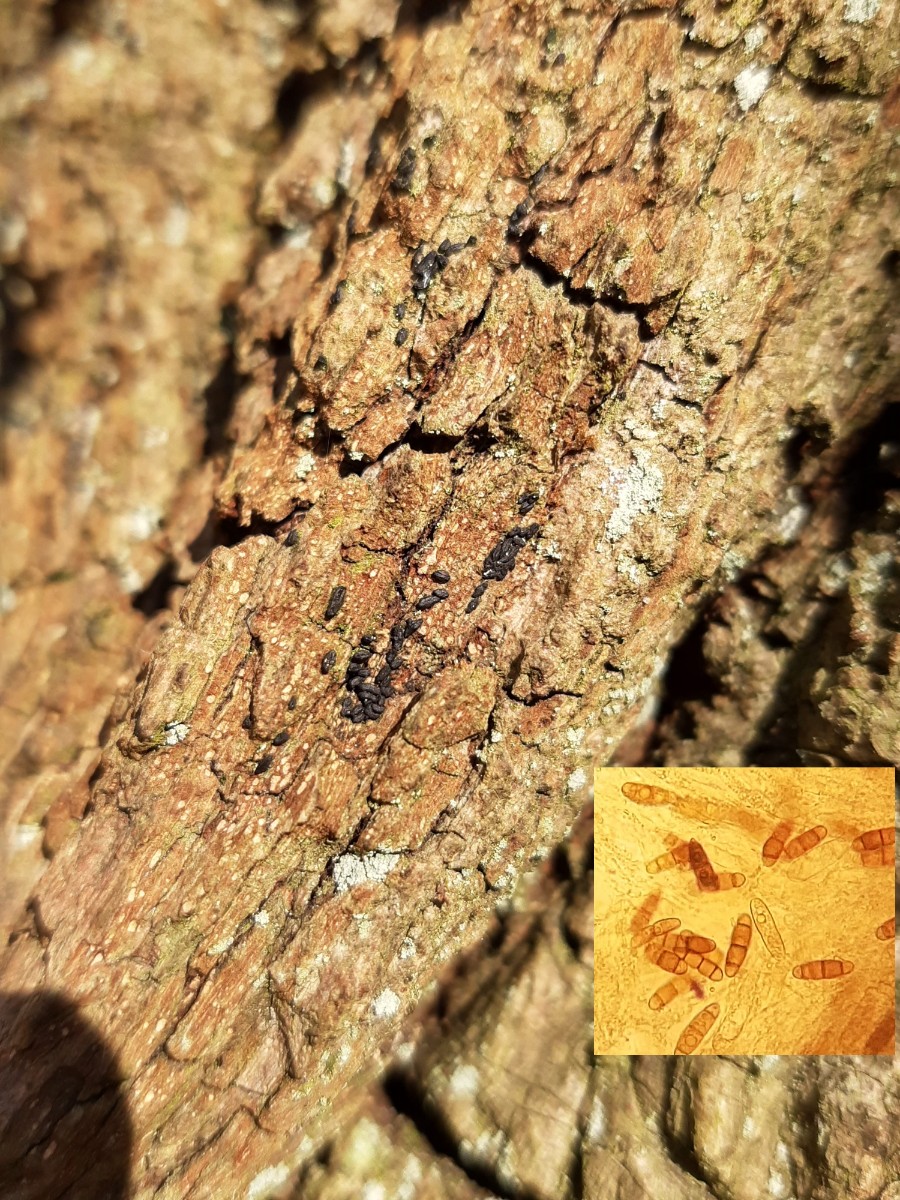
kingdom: Fungi
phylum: Ascomycota
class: Dothideomycetes
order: Hysteriales
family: Hysteriaceae
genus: Hysterium
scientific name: Hysterium pulicare
